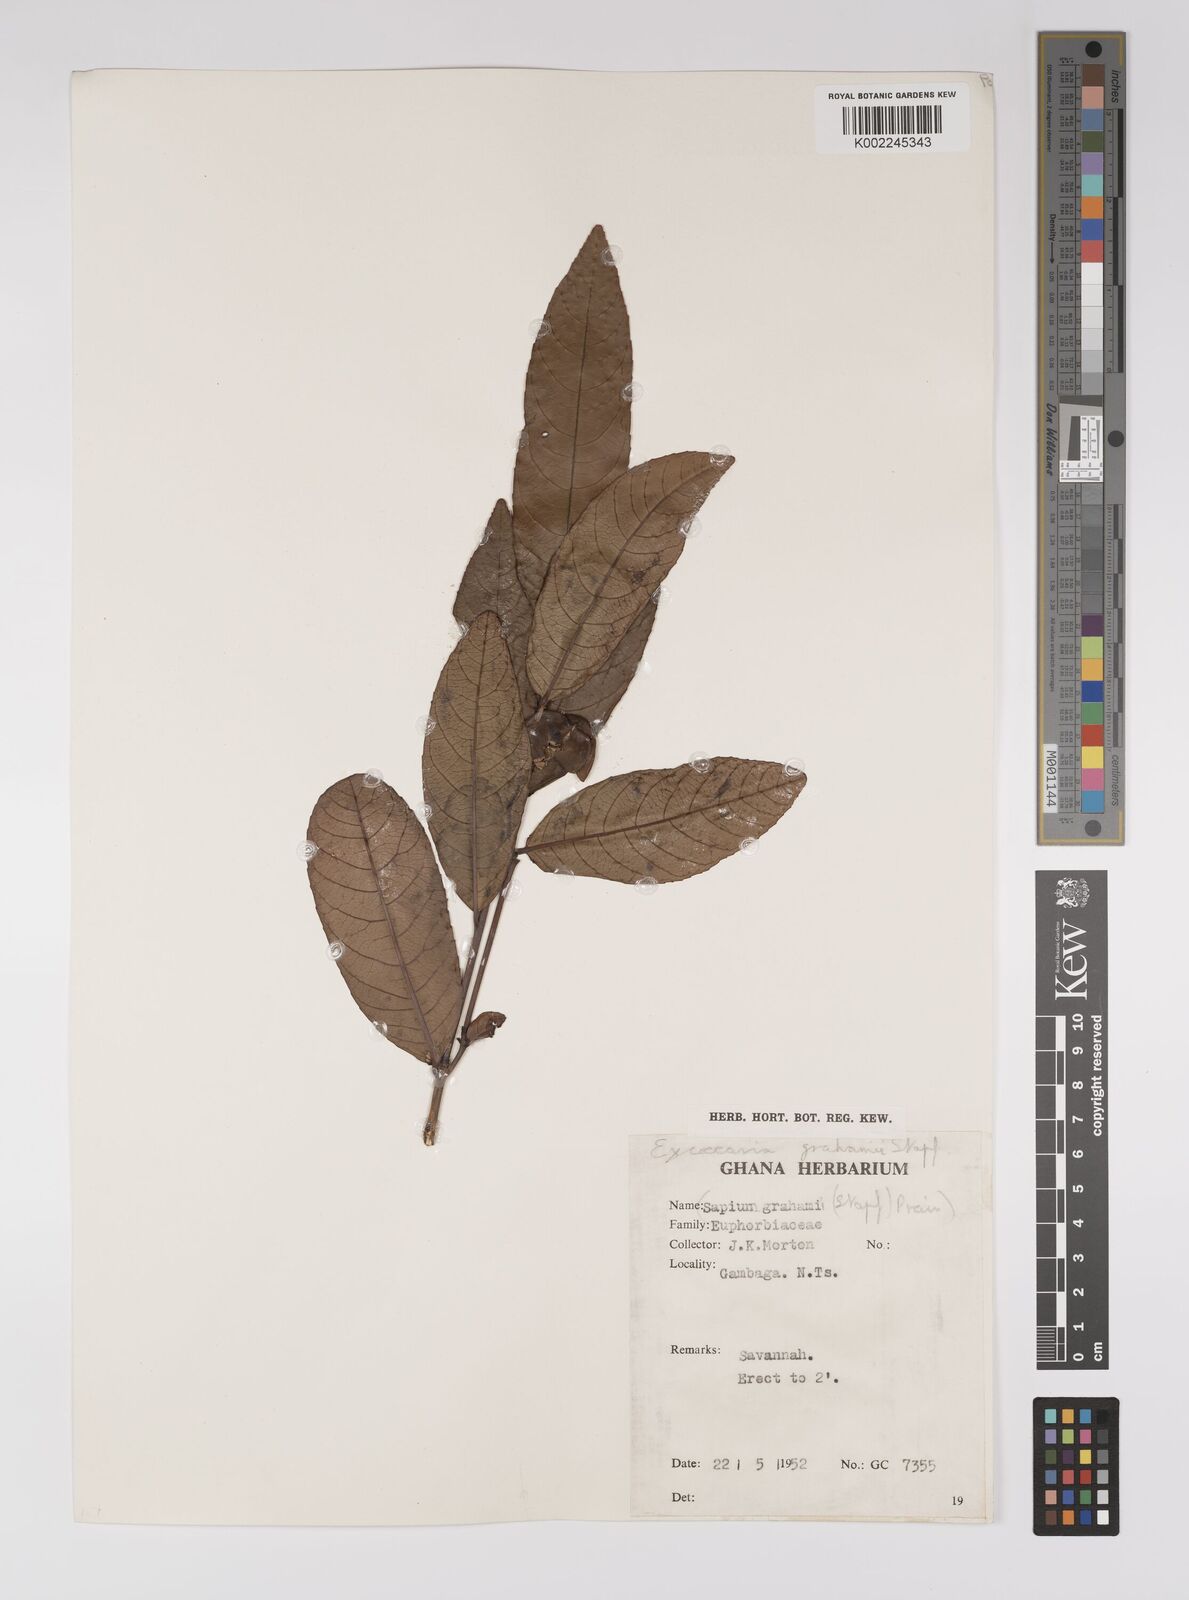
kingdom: Plantae
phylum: Tracheophyta
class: Magnoliopsida
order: Malpighiales
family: Euphorbiaceae
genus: Excoecaria
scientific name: Excoecaria grahamii
